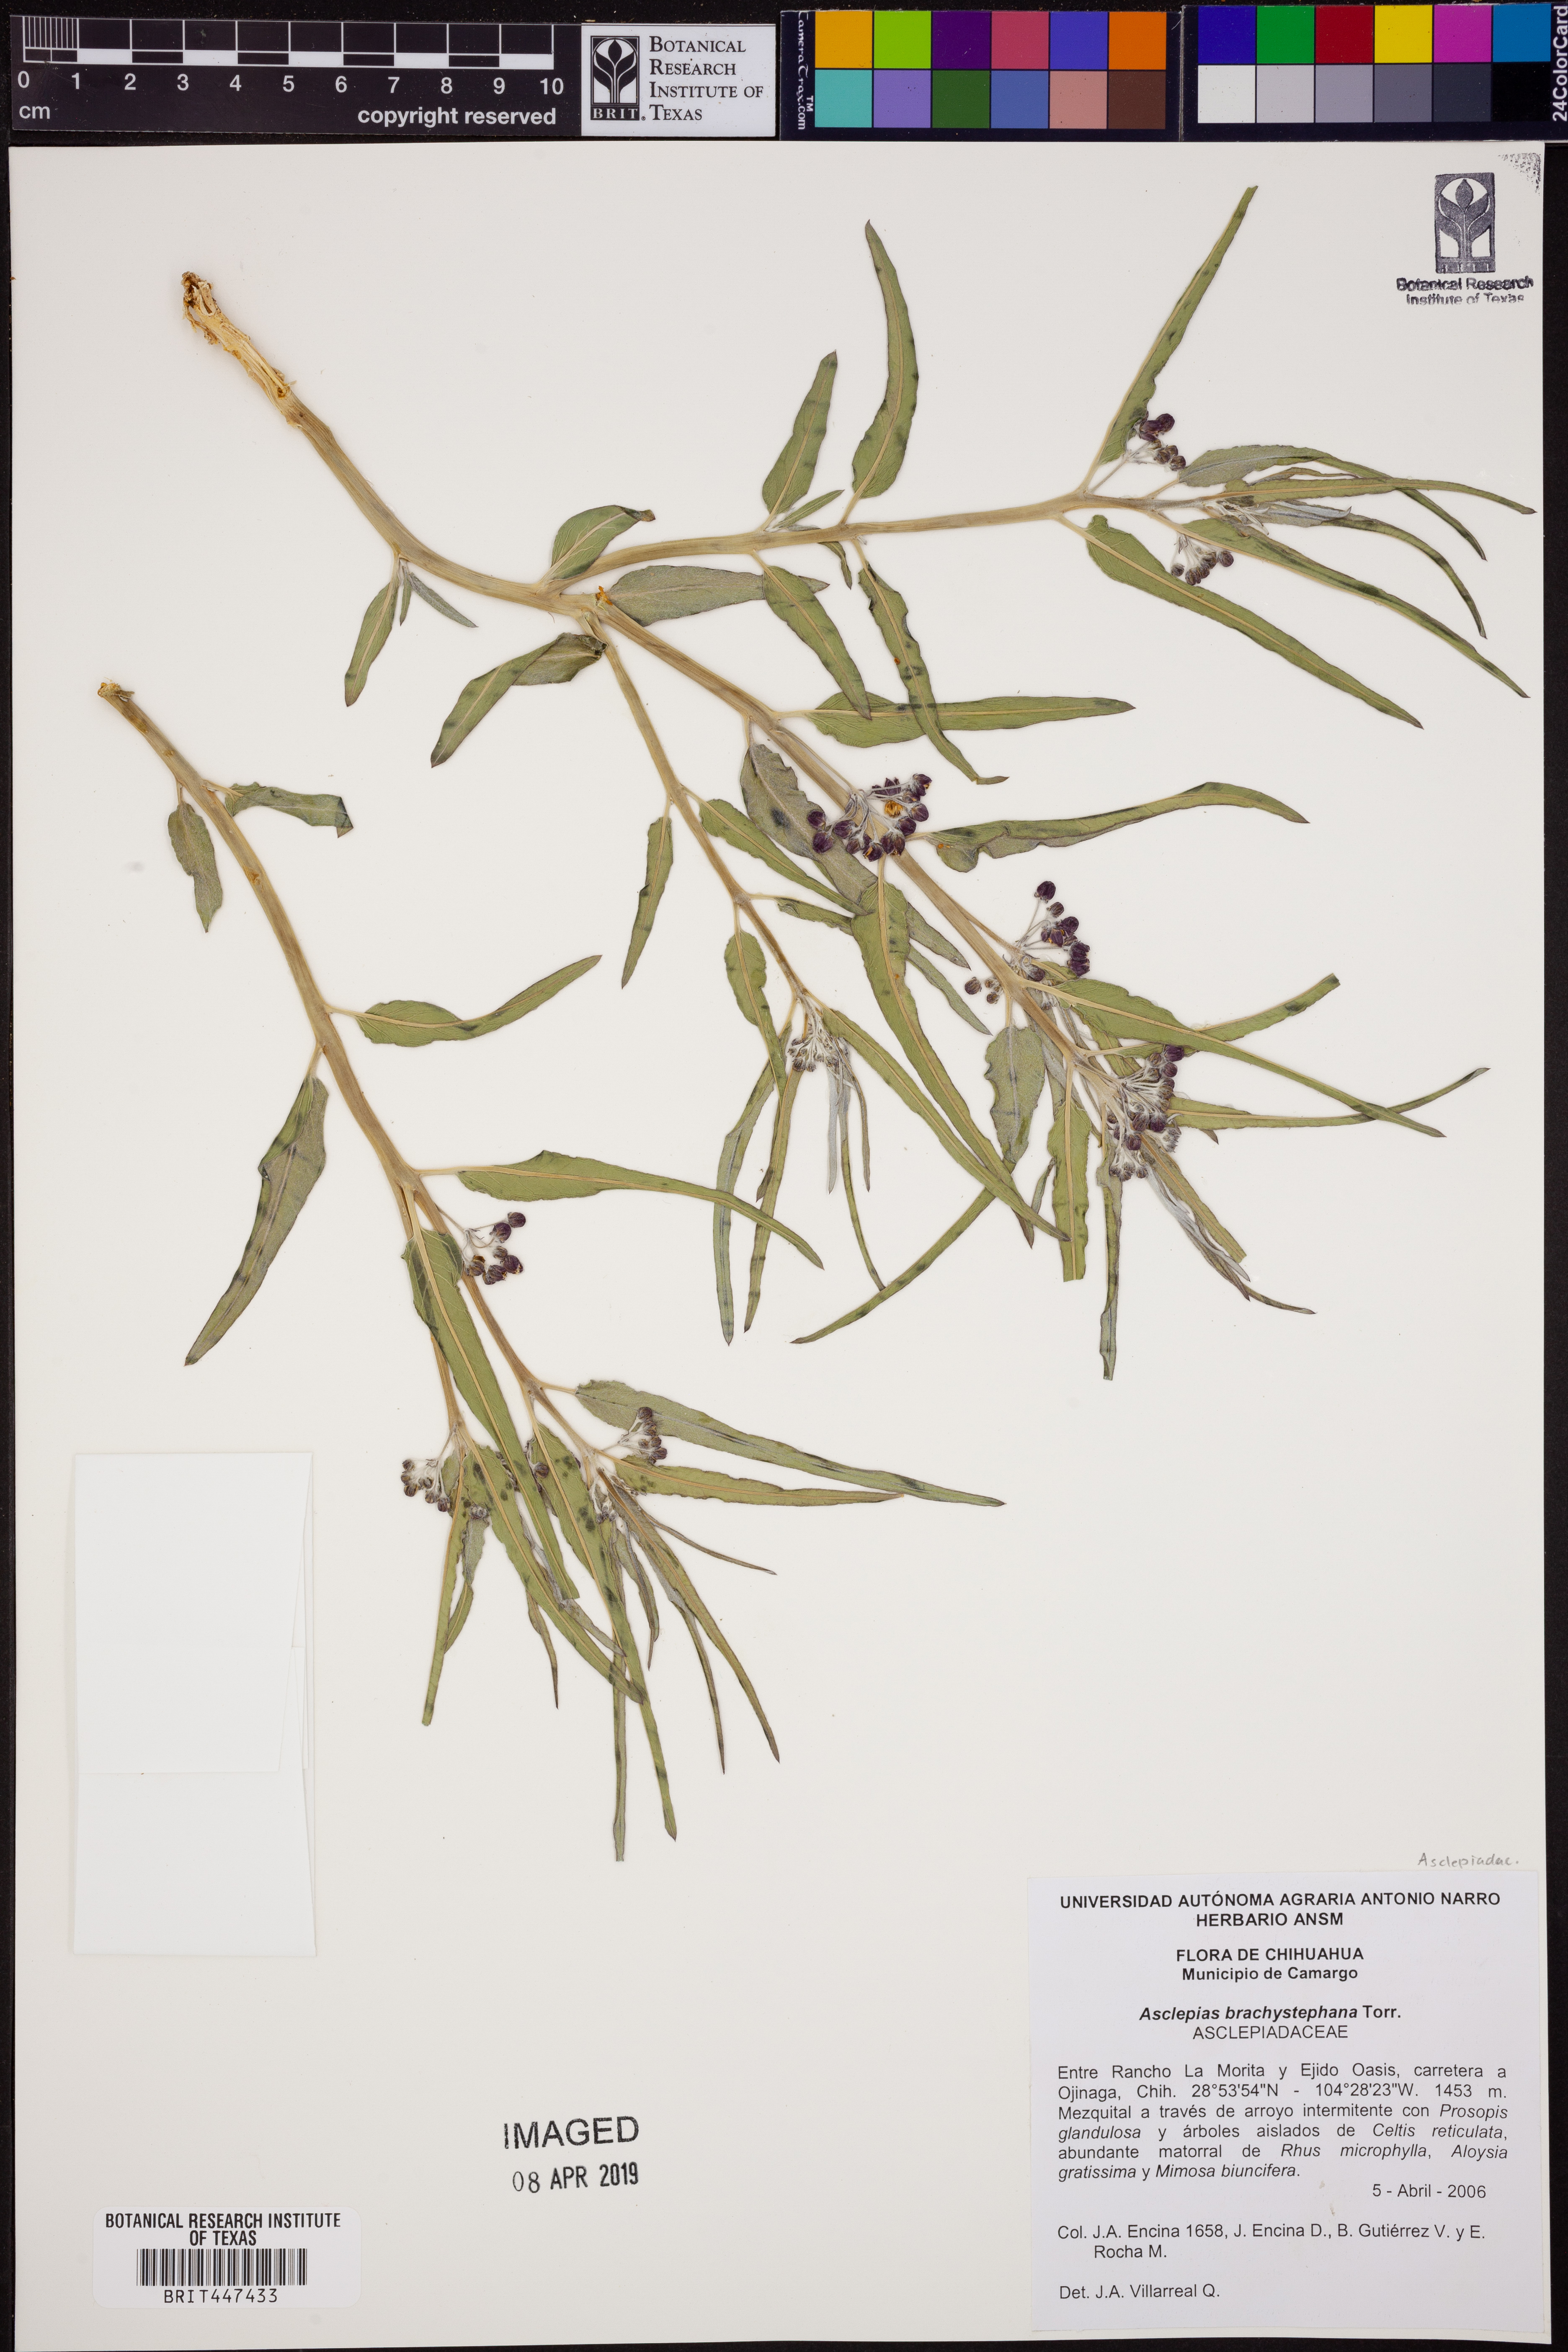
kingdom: Plantae
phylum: Tracheophyta
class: Magnoliopsida
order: Gentianales
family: Apocynaceae
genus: Asclepias
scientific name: Asclepias brachystephana
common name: Shortcrown milkweed
